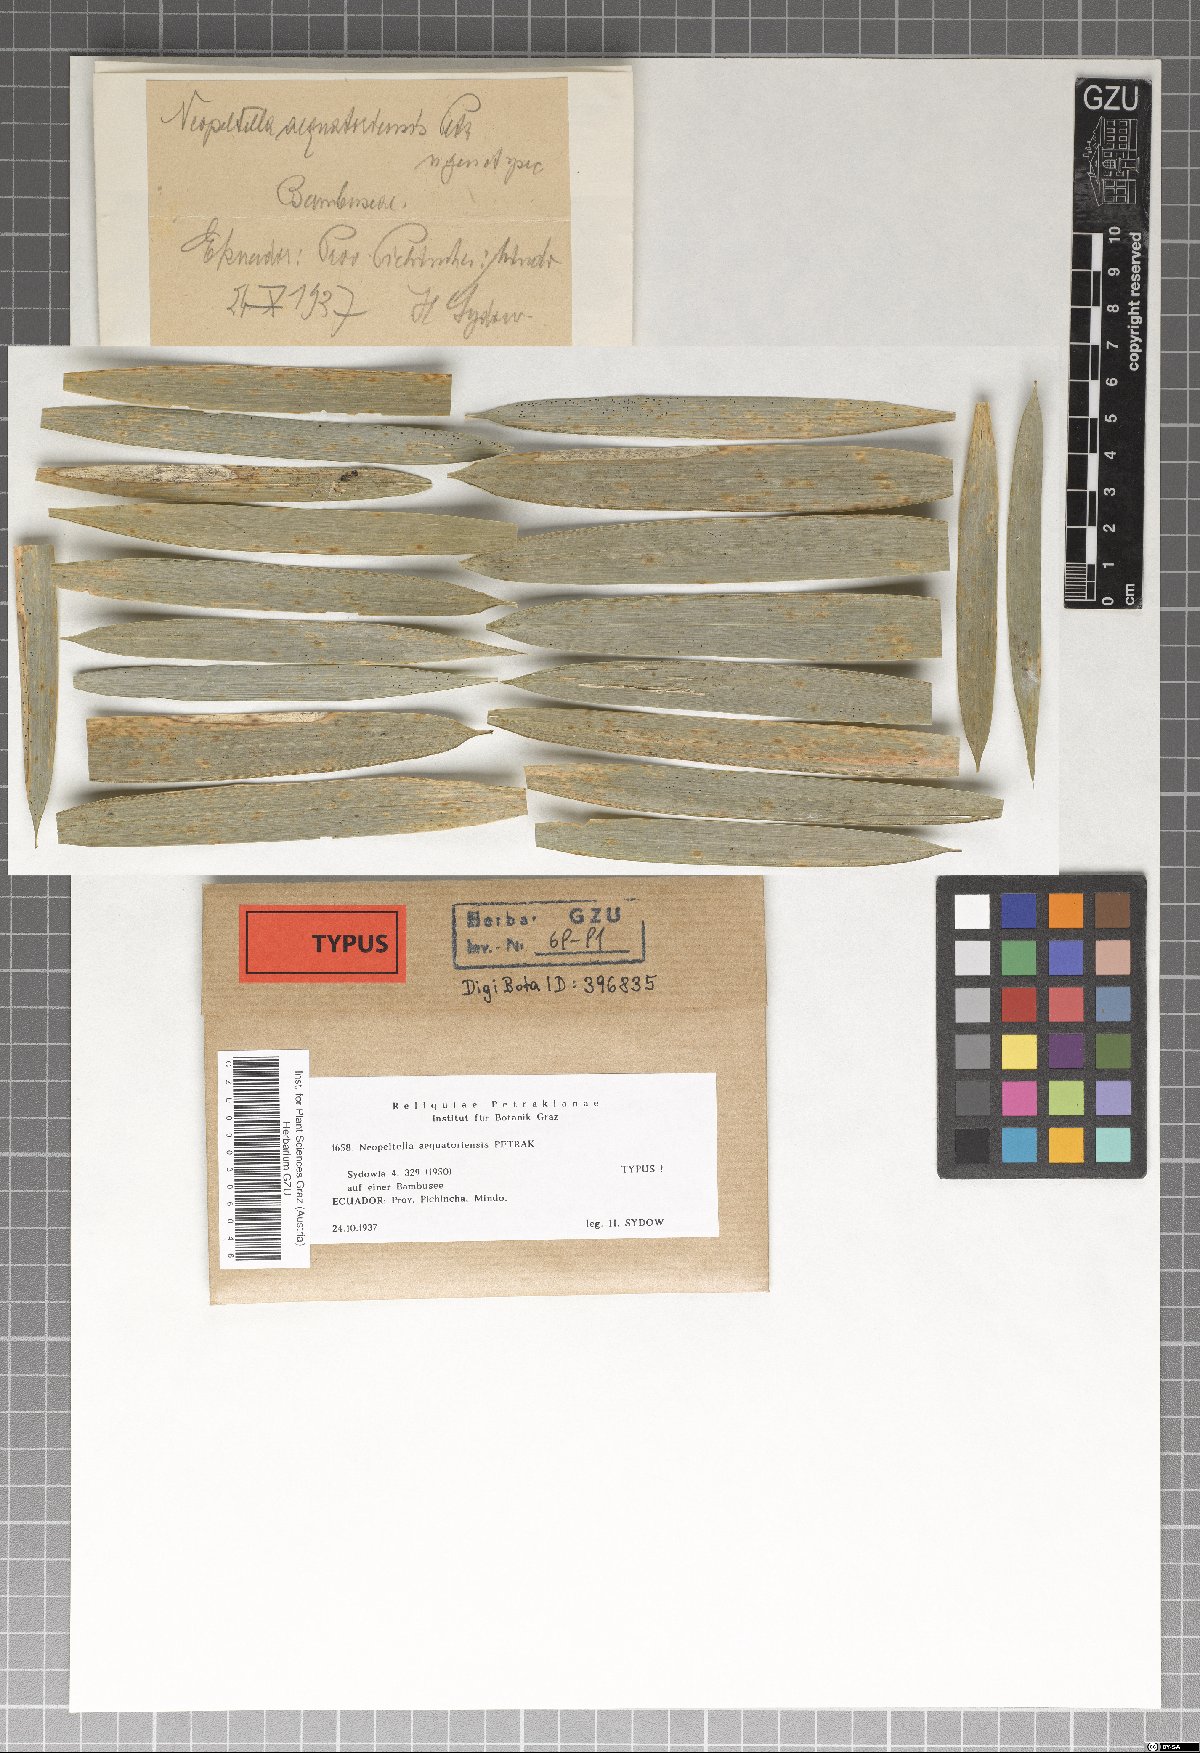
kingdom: Fungi
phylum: Ascomycota
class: Dothideomycetes
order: Mycosphaerellales
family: Schizothyriaceae
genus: Neopeltella
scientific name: Neopeltella aequatoriensis
